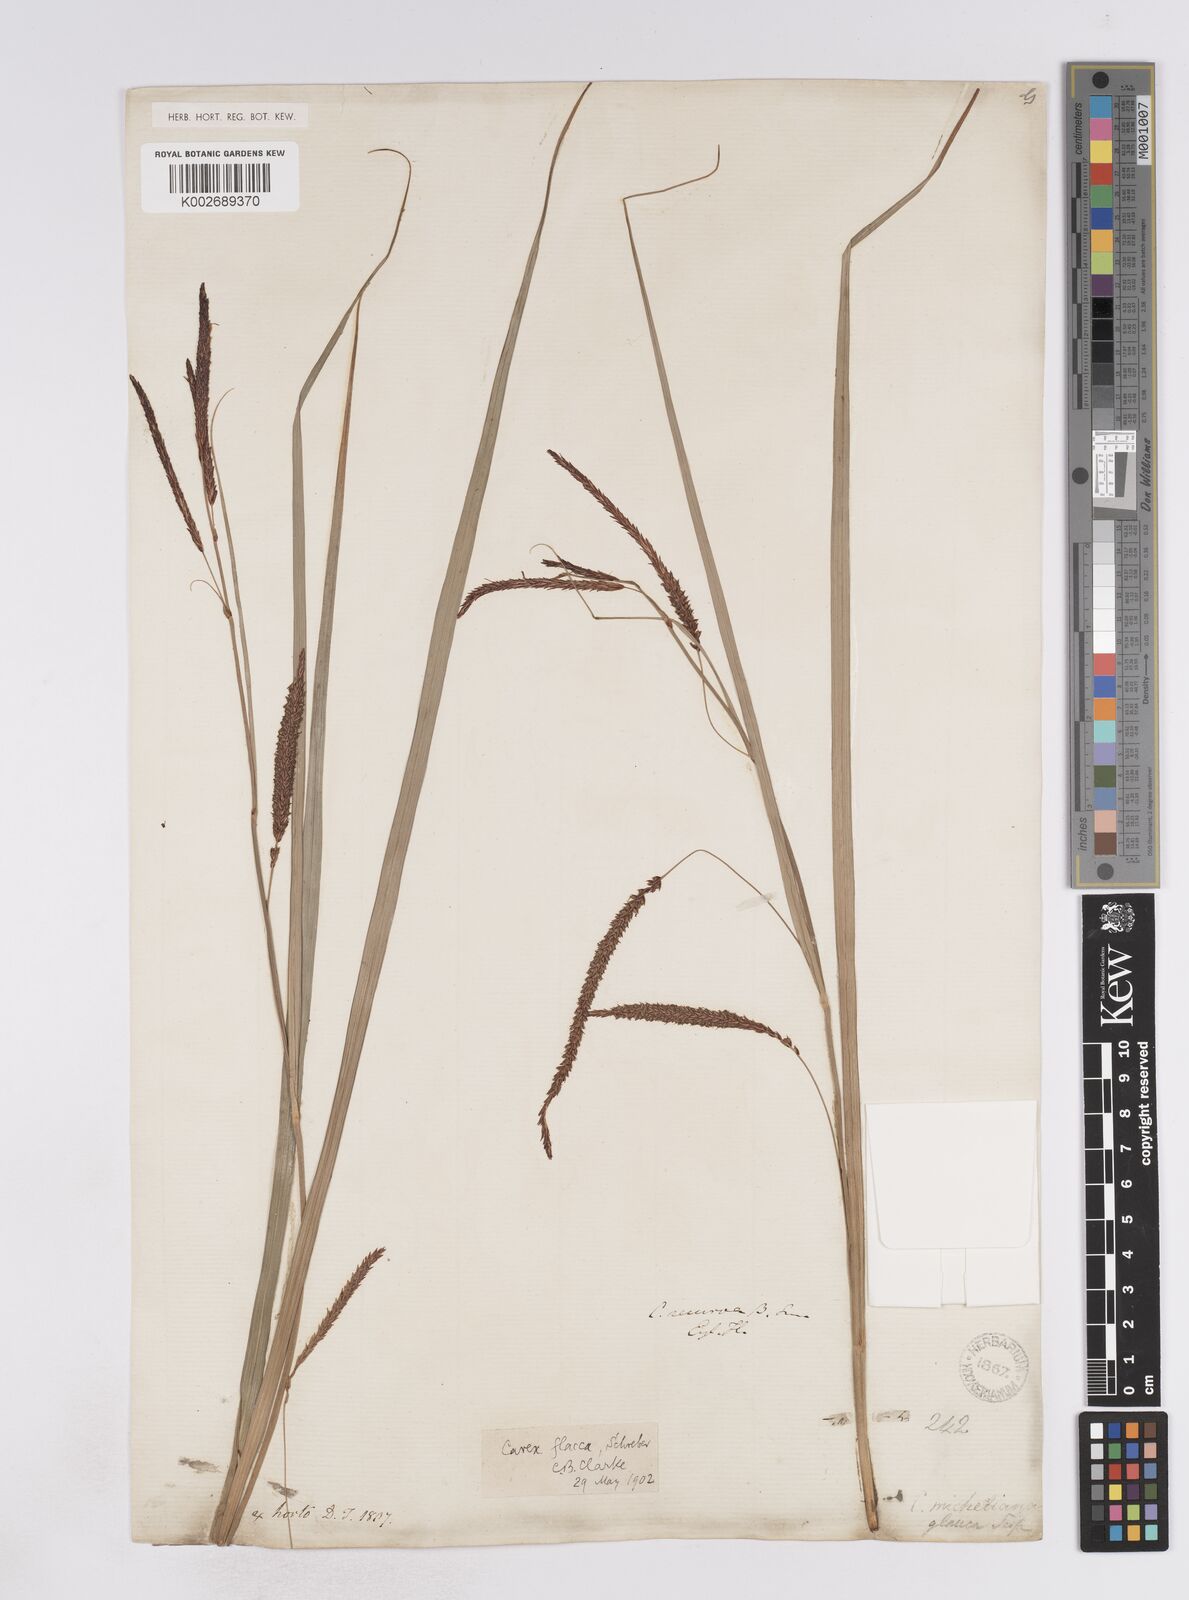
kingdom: Plantae
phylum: Tracheophyta
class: Liliopsida
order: Poales
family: Cyperaceae
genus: Carex
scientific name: Carex flacca
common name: Glaucous sedge
